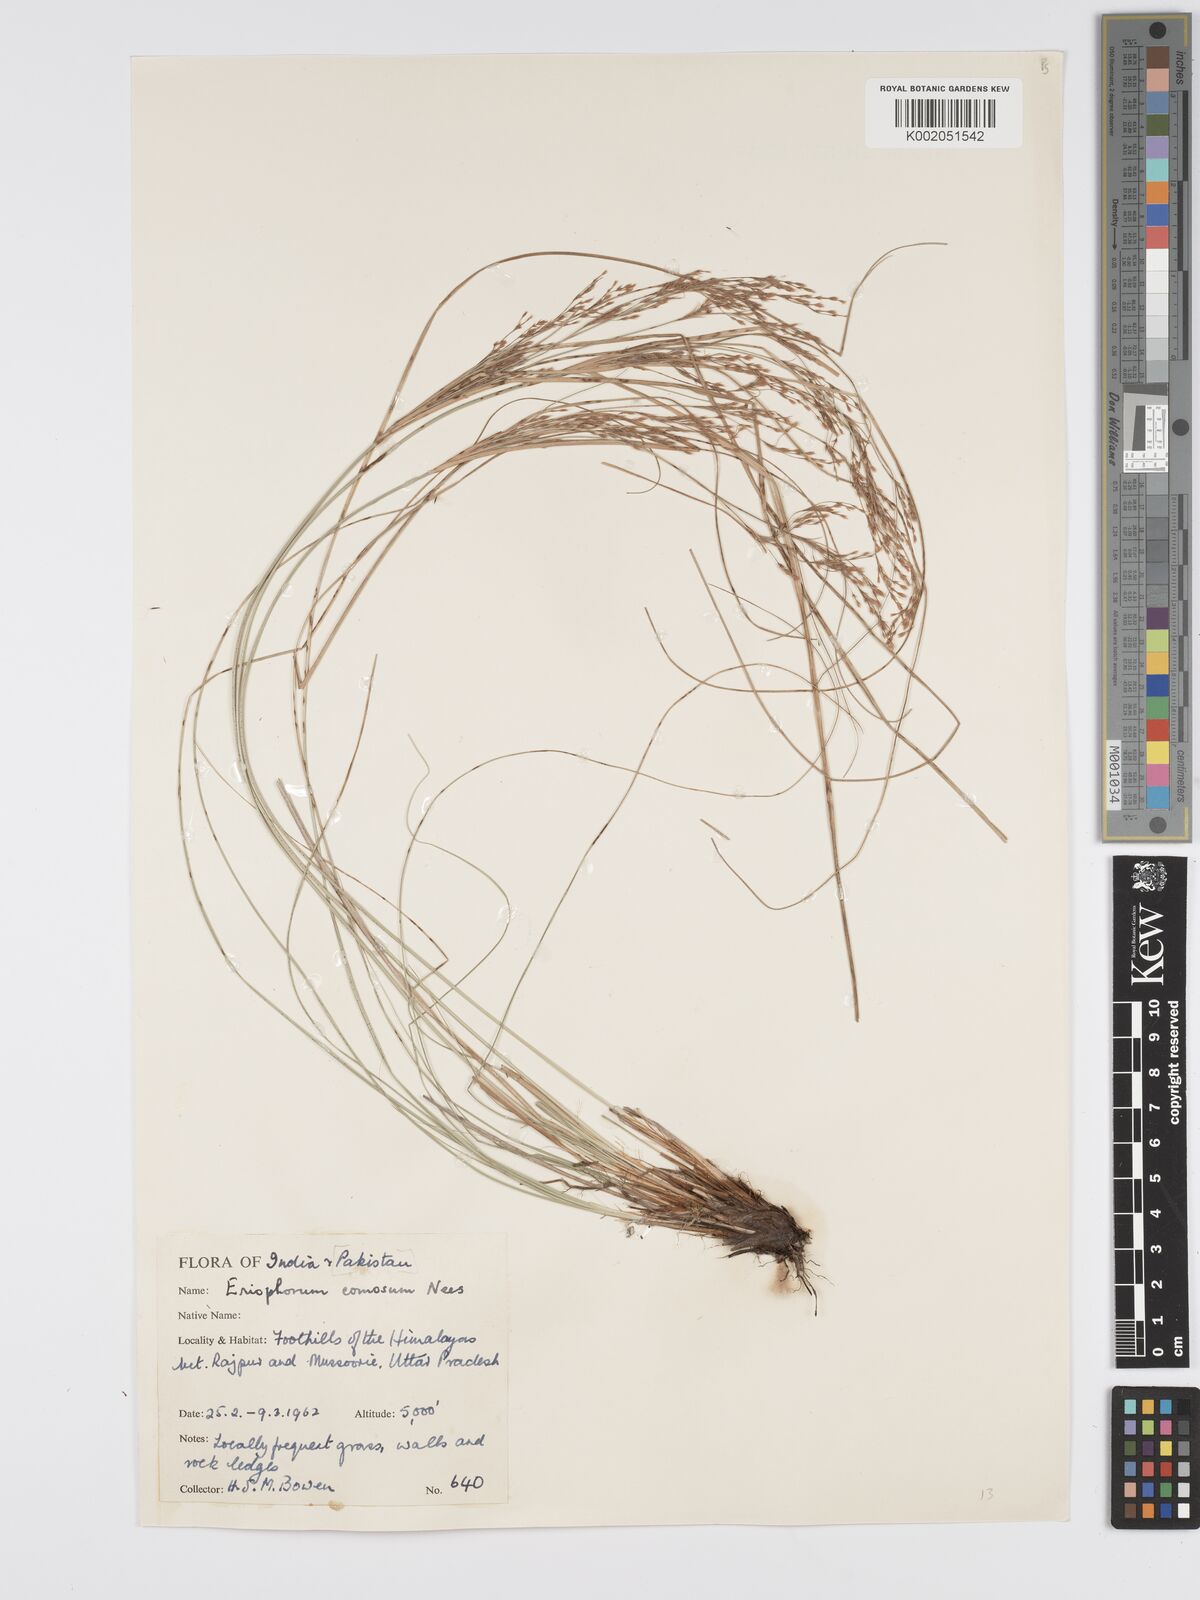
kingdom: Plantae
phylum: Tracheophyta
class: Liliopsida
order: Poales
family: Cyperaceae
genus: Erioscirpus
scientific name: Erioscirpus comosus
